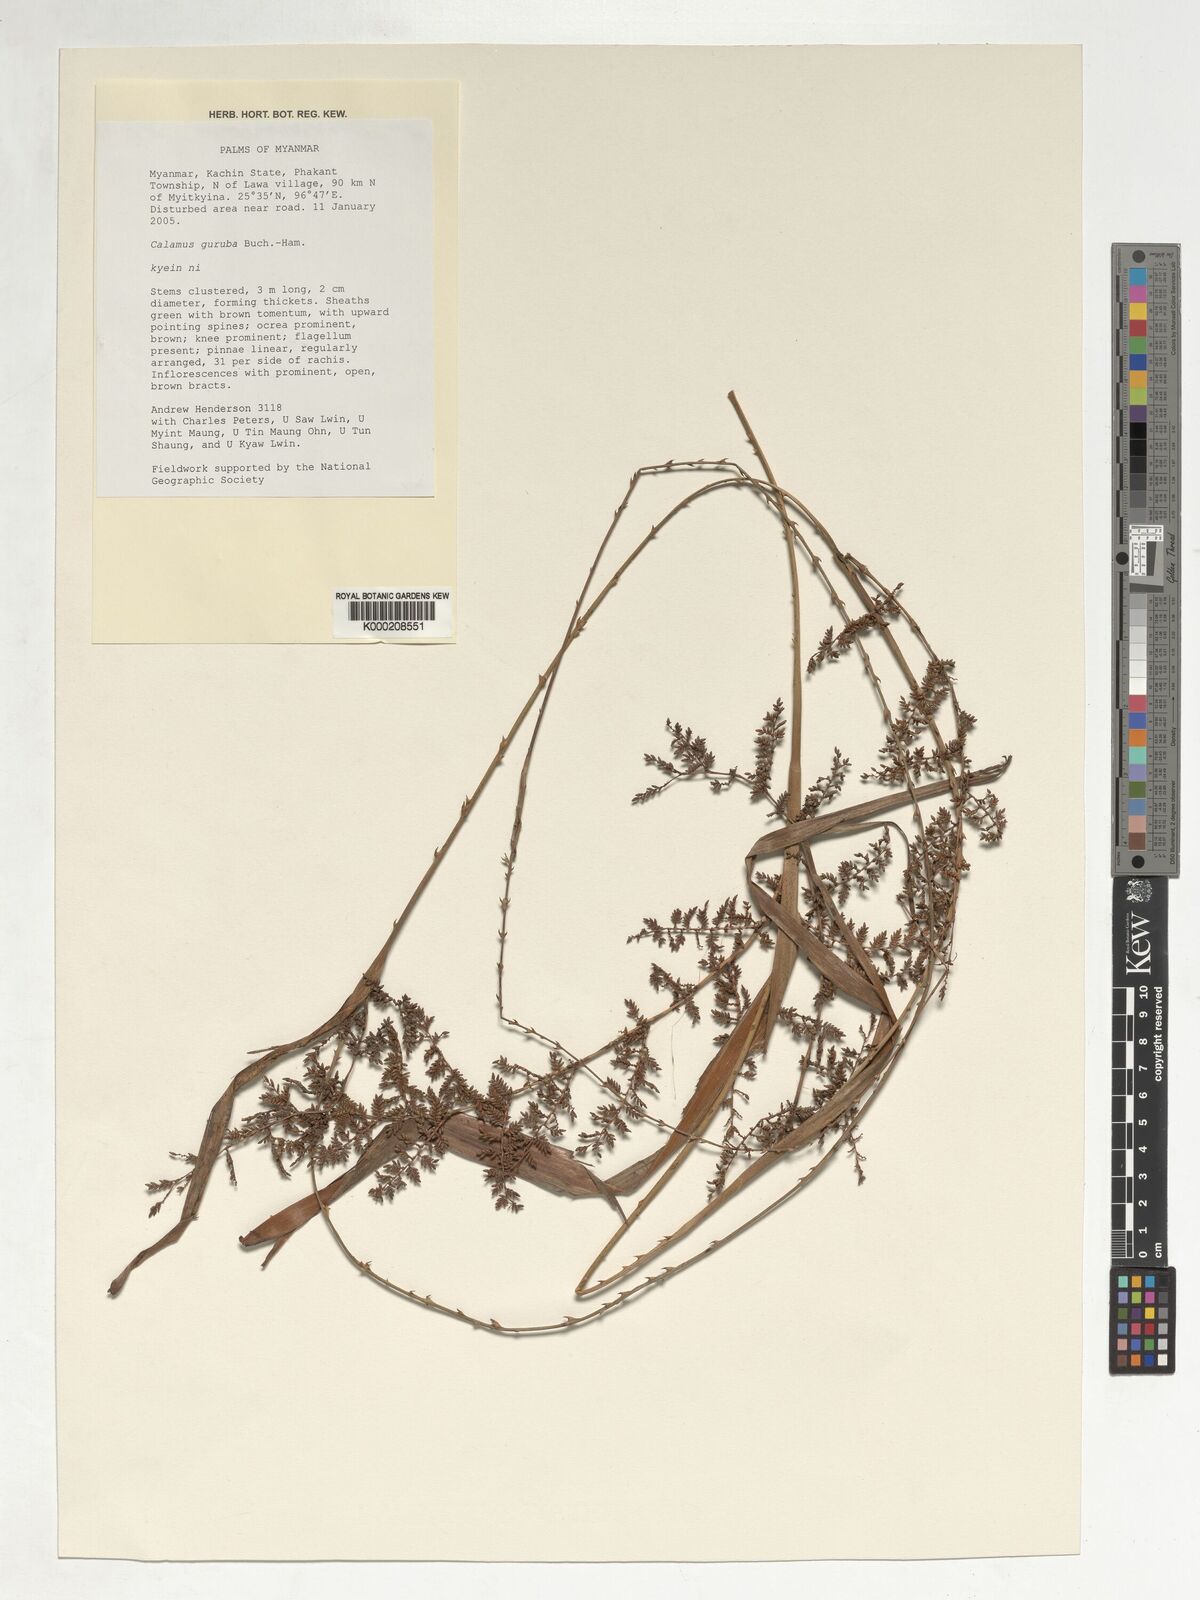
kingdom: Plantae
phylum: Tracheophyta
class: Liliopsida
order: Arecales
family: Arecaceae
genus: Calamus
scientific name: Calamus
